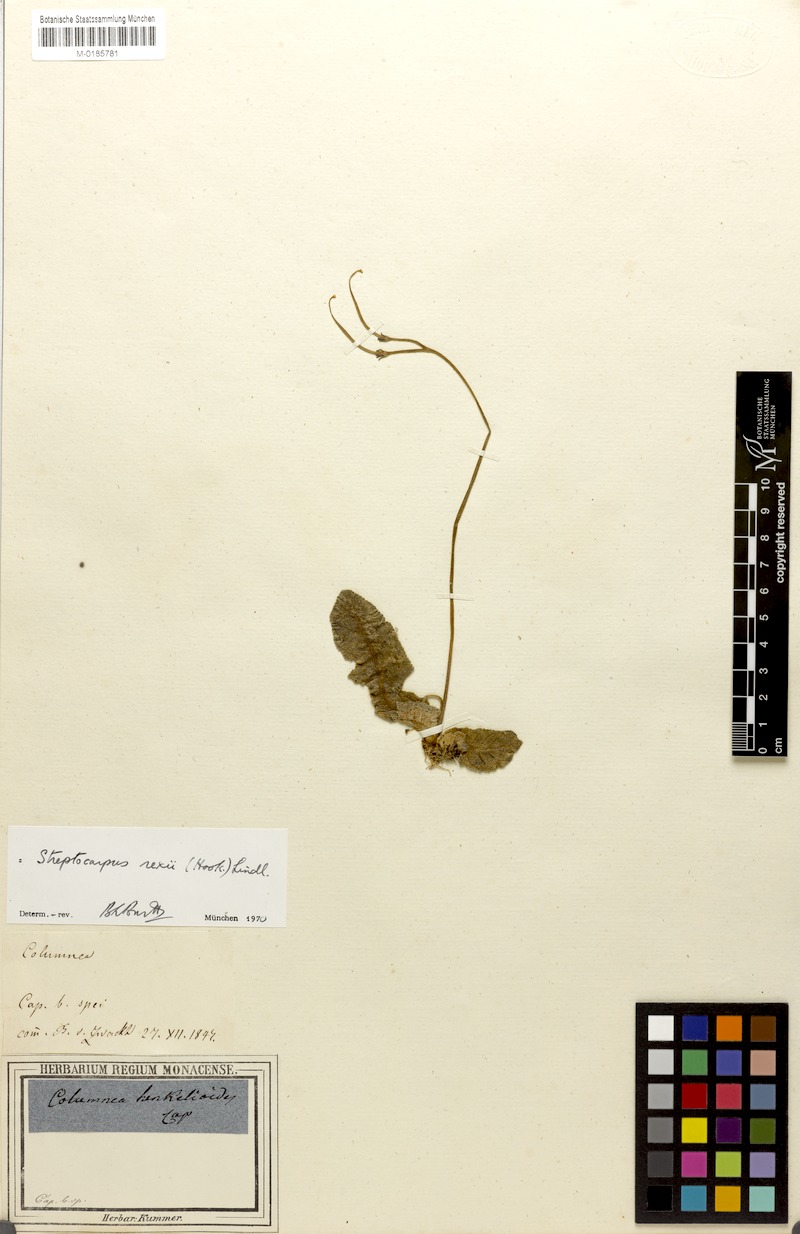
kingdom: Plantae
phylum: Tracheophyta
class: Magnoliopsida
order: Lamiales
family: Gesneriaceae
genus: Streptocarpus
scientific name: Streptocarpus meyeri
